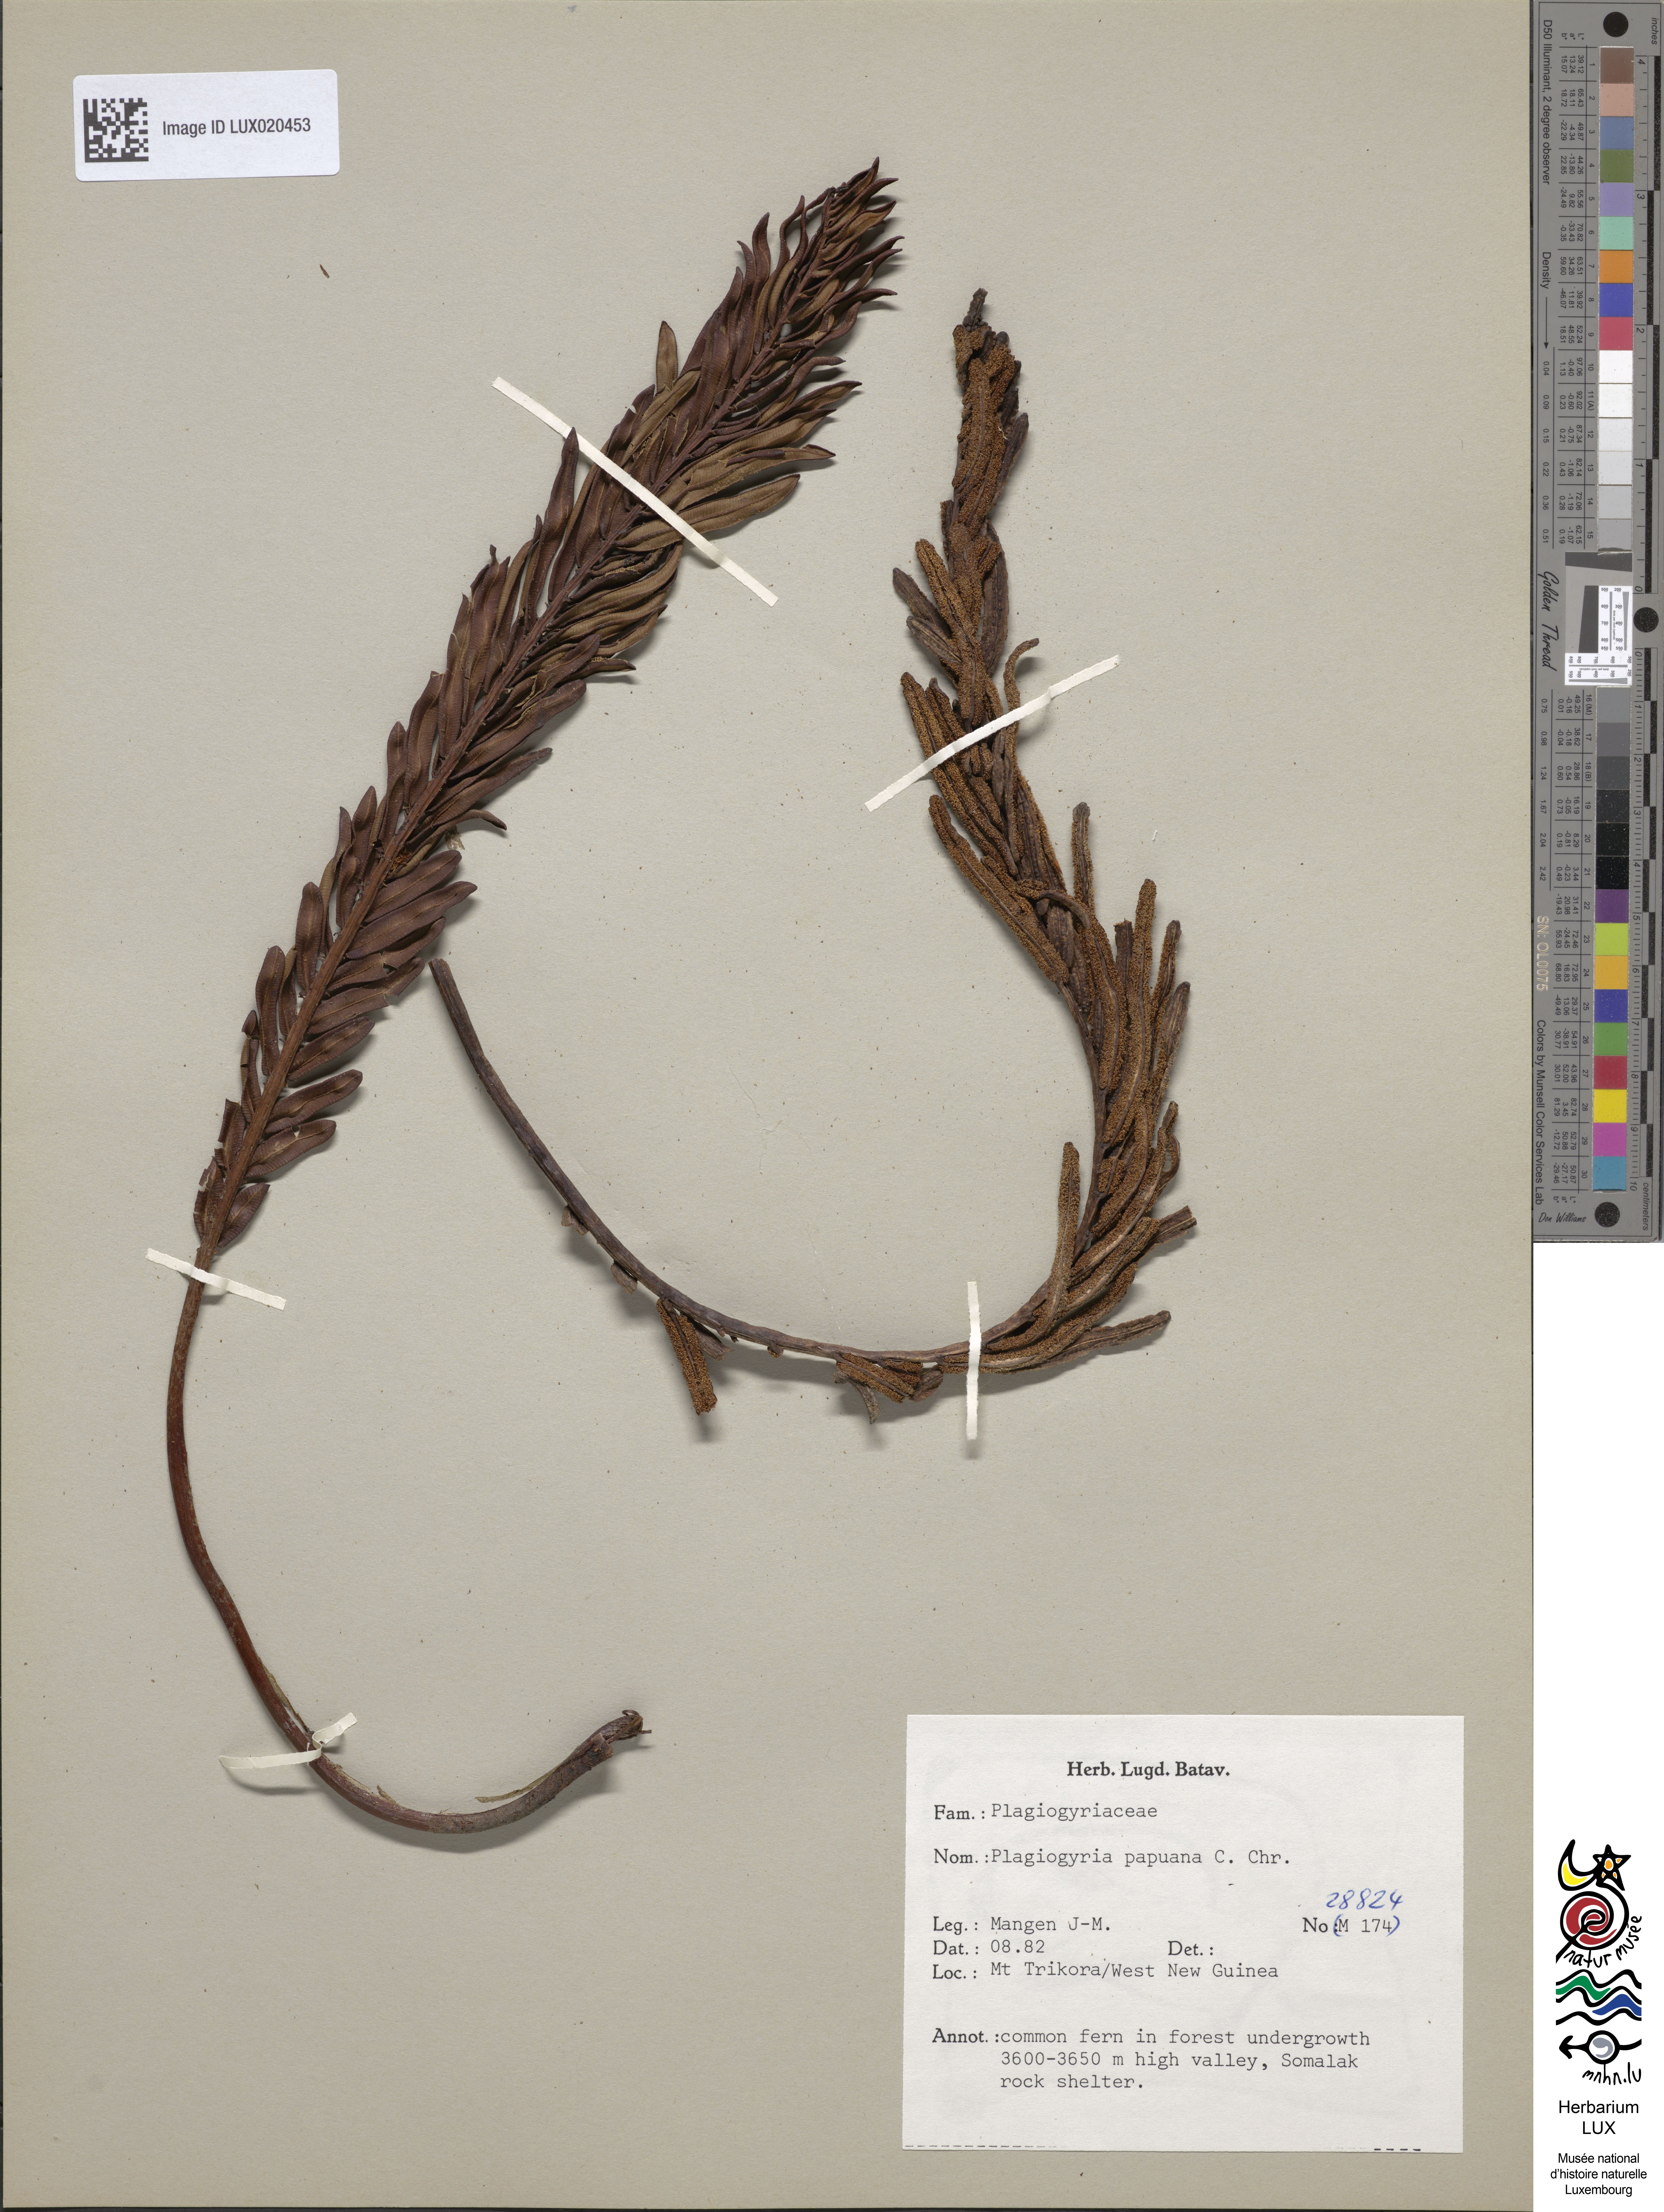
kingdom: Plantae
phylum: Tracheophyta
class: Polypodiopsida
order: Cyatheales
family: Plagiogyriaceae
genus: Plagiogyria
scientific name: Plagiogyria egenolfioides
